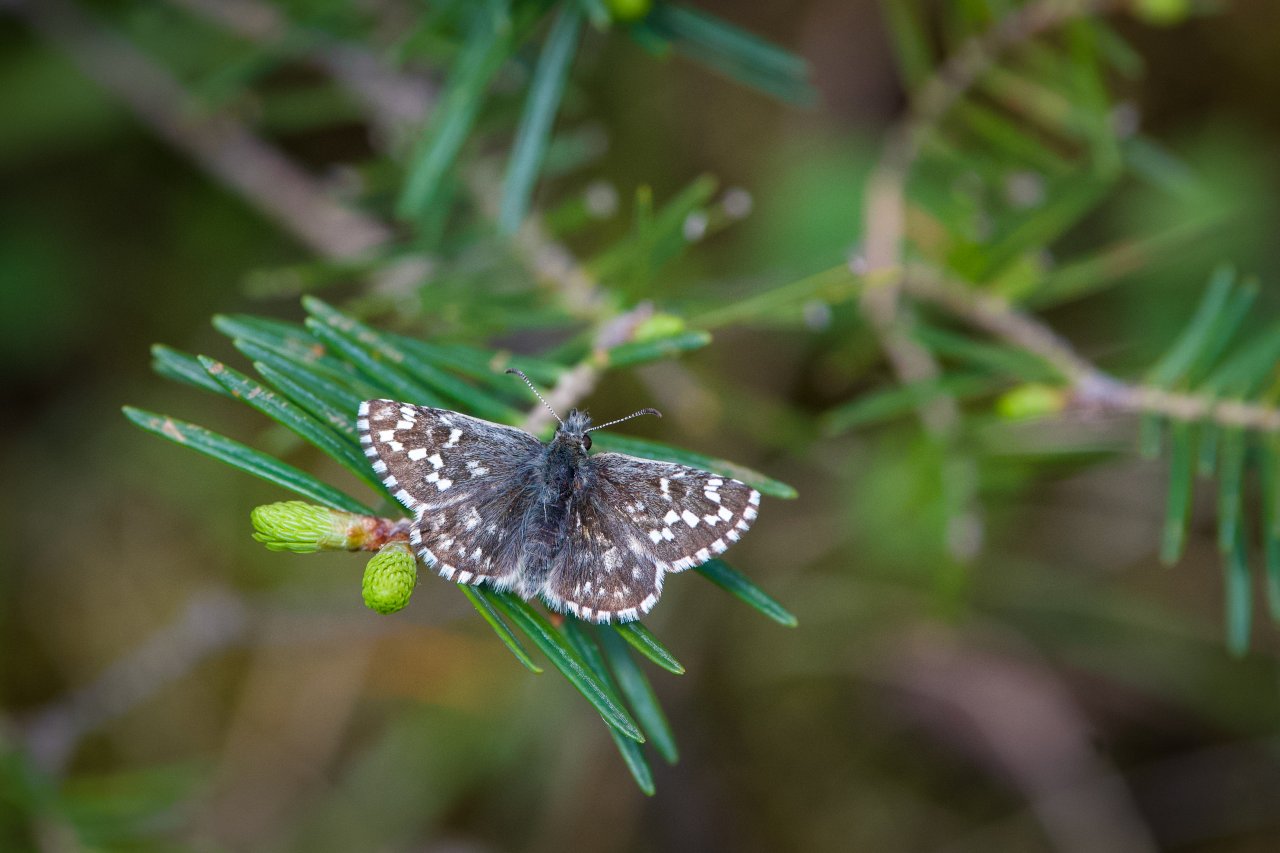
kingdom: Animalia
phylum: Arthropoda
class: Insecta
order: Lepidoptera
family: Hesperiidae
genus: Pyrgus
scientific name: Pyrgus centaureae
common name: Grizzled Skipper
